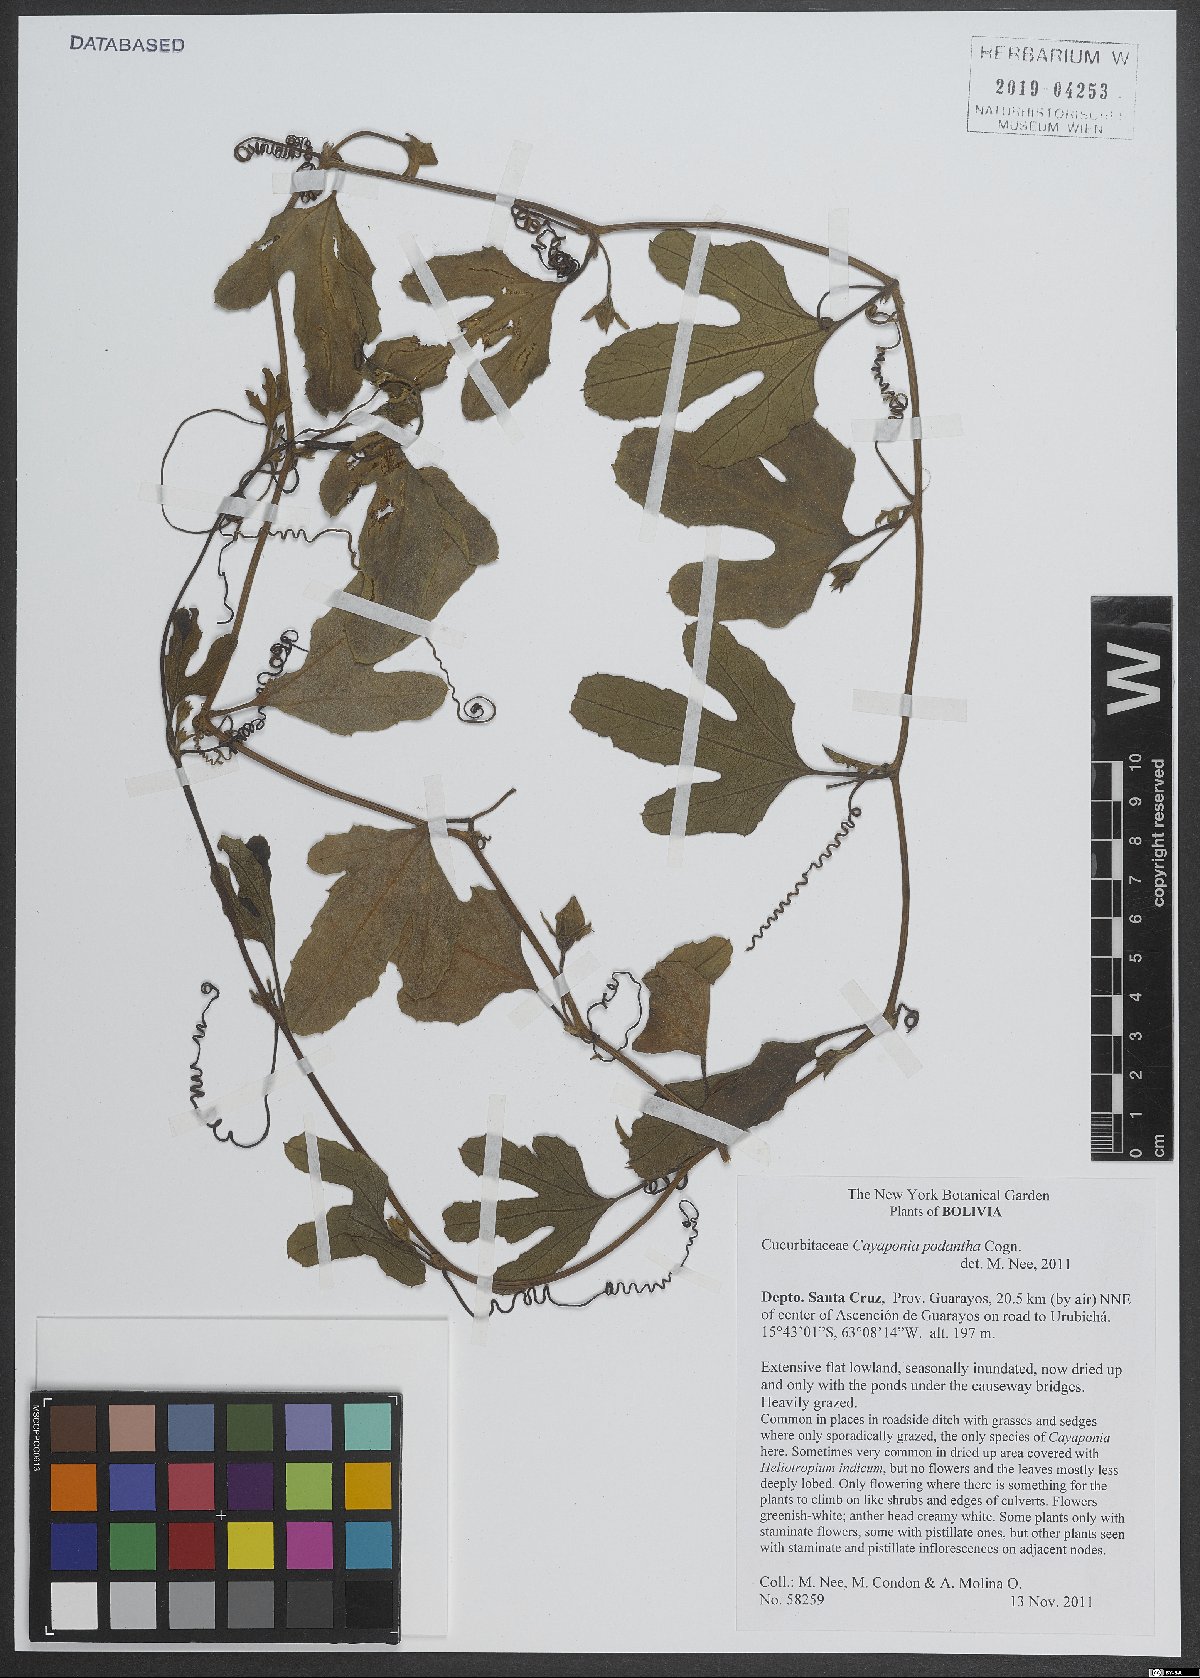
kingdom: Plantae
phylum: Tracheophyta
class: Magnoliopsida
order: Cucurbitales
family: Cucurbitaceae
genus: Cayaponia
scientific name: Cayaponia podantha
